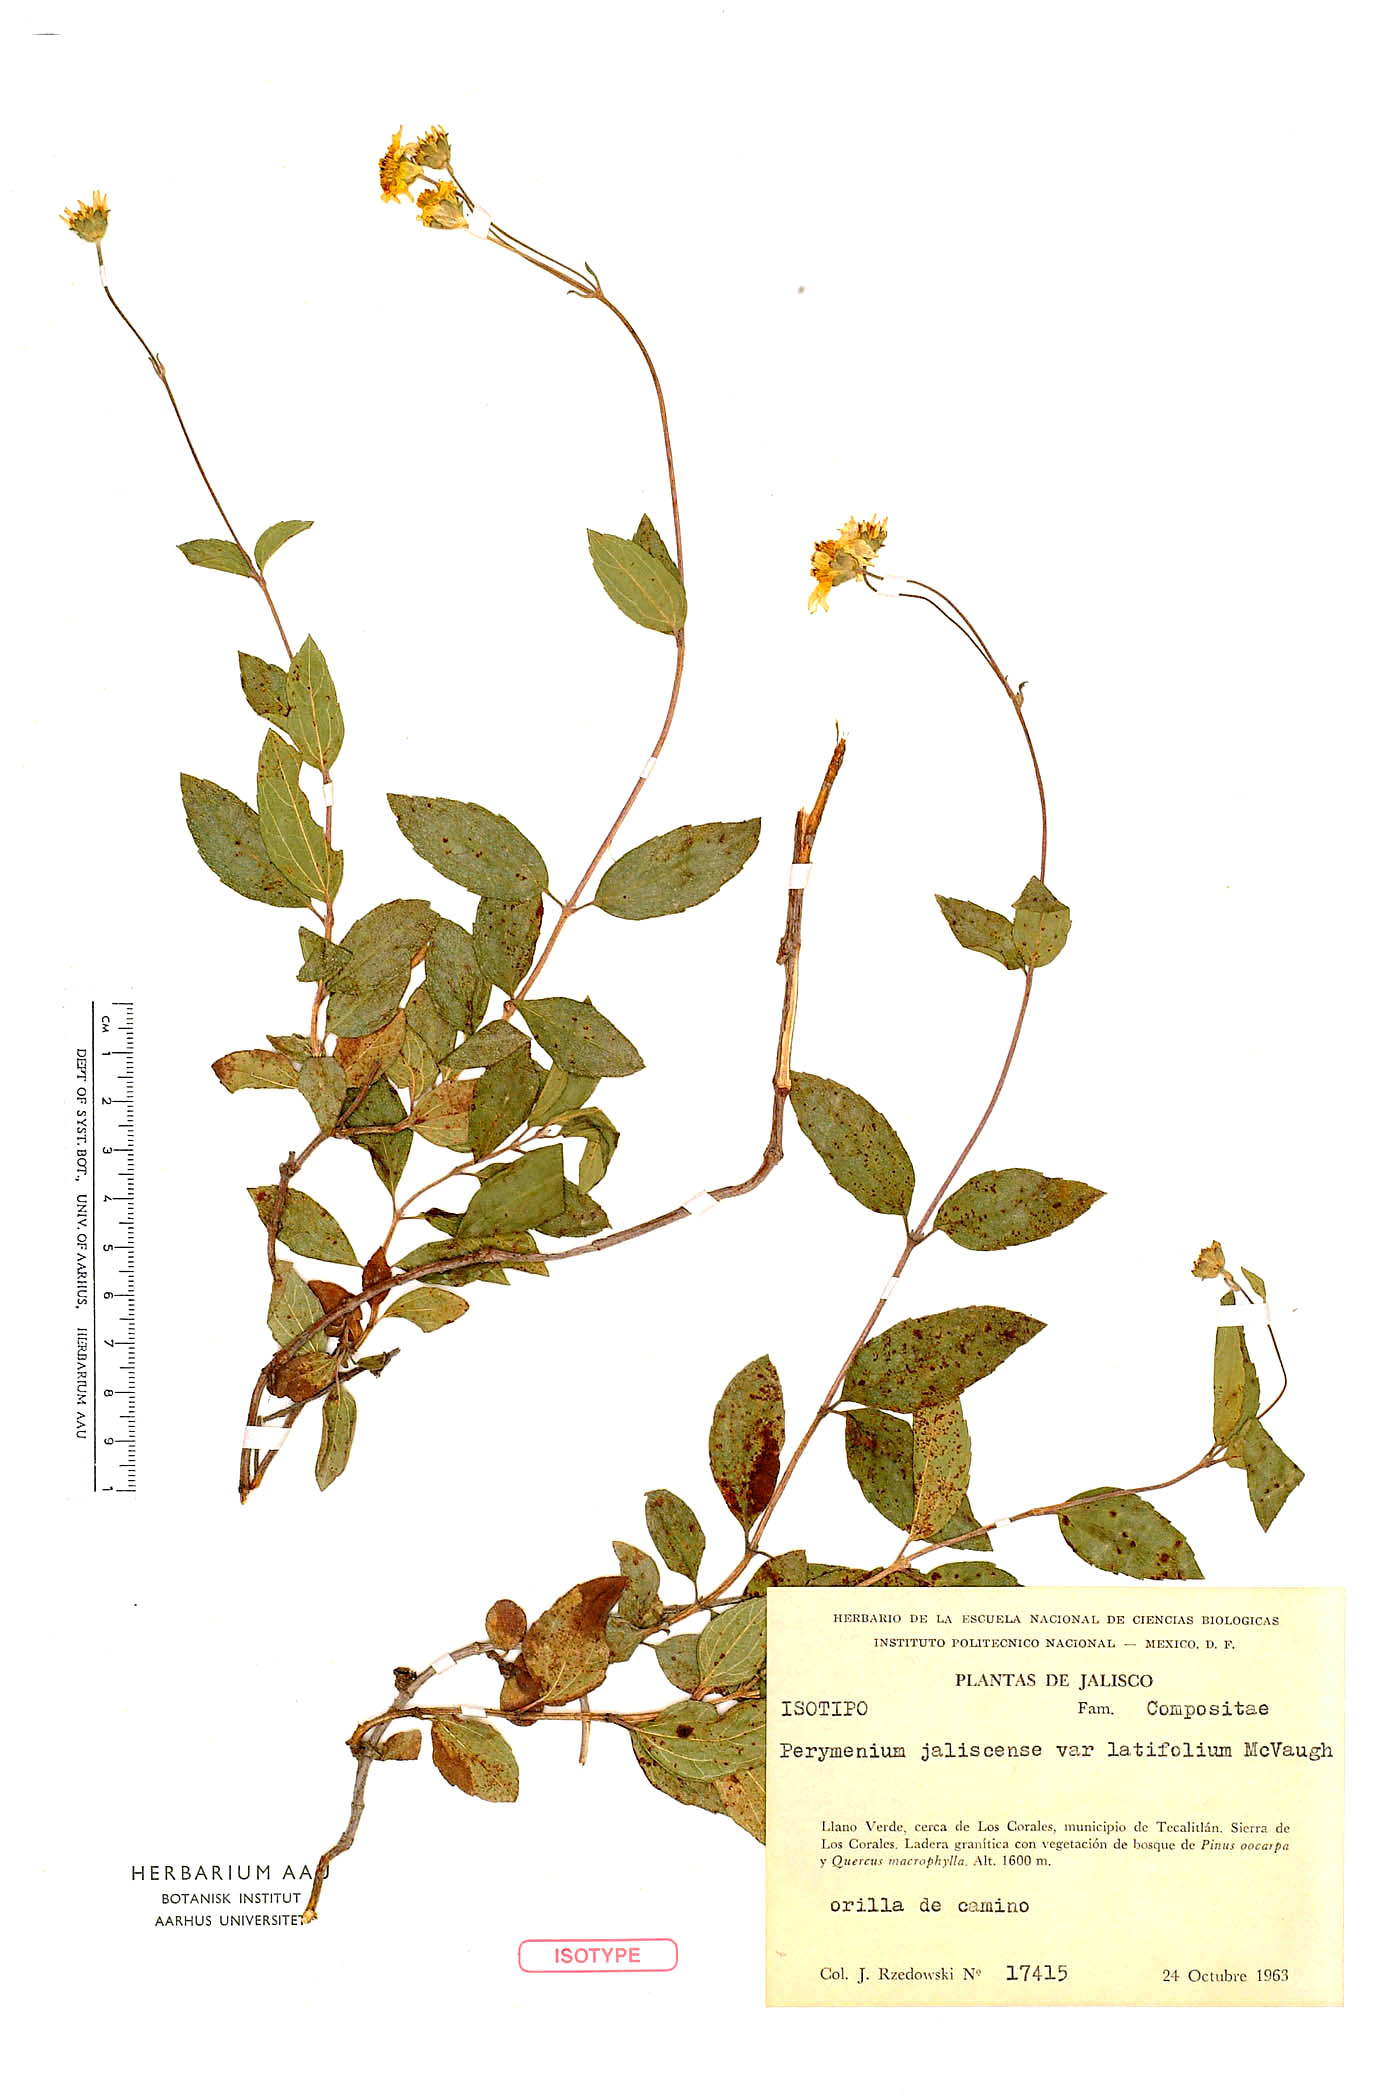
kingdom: Plantae
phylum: Tracheophyta
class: Magnoliopsida
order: Asterales
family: Asteraceae
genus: Perymenium
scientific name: Perymenium jaliscense
